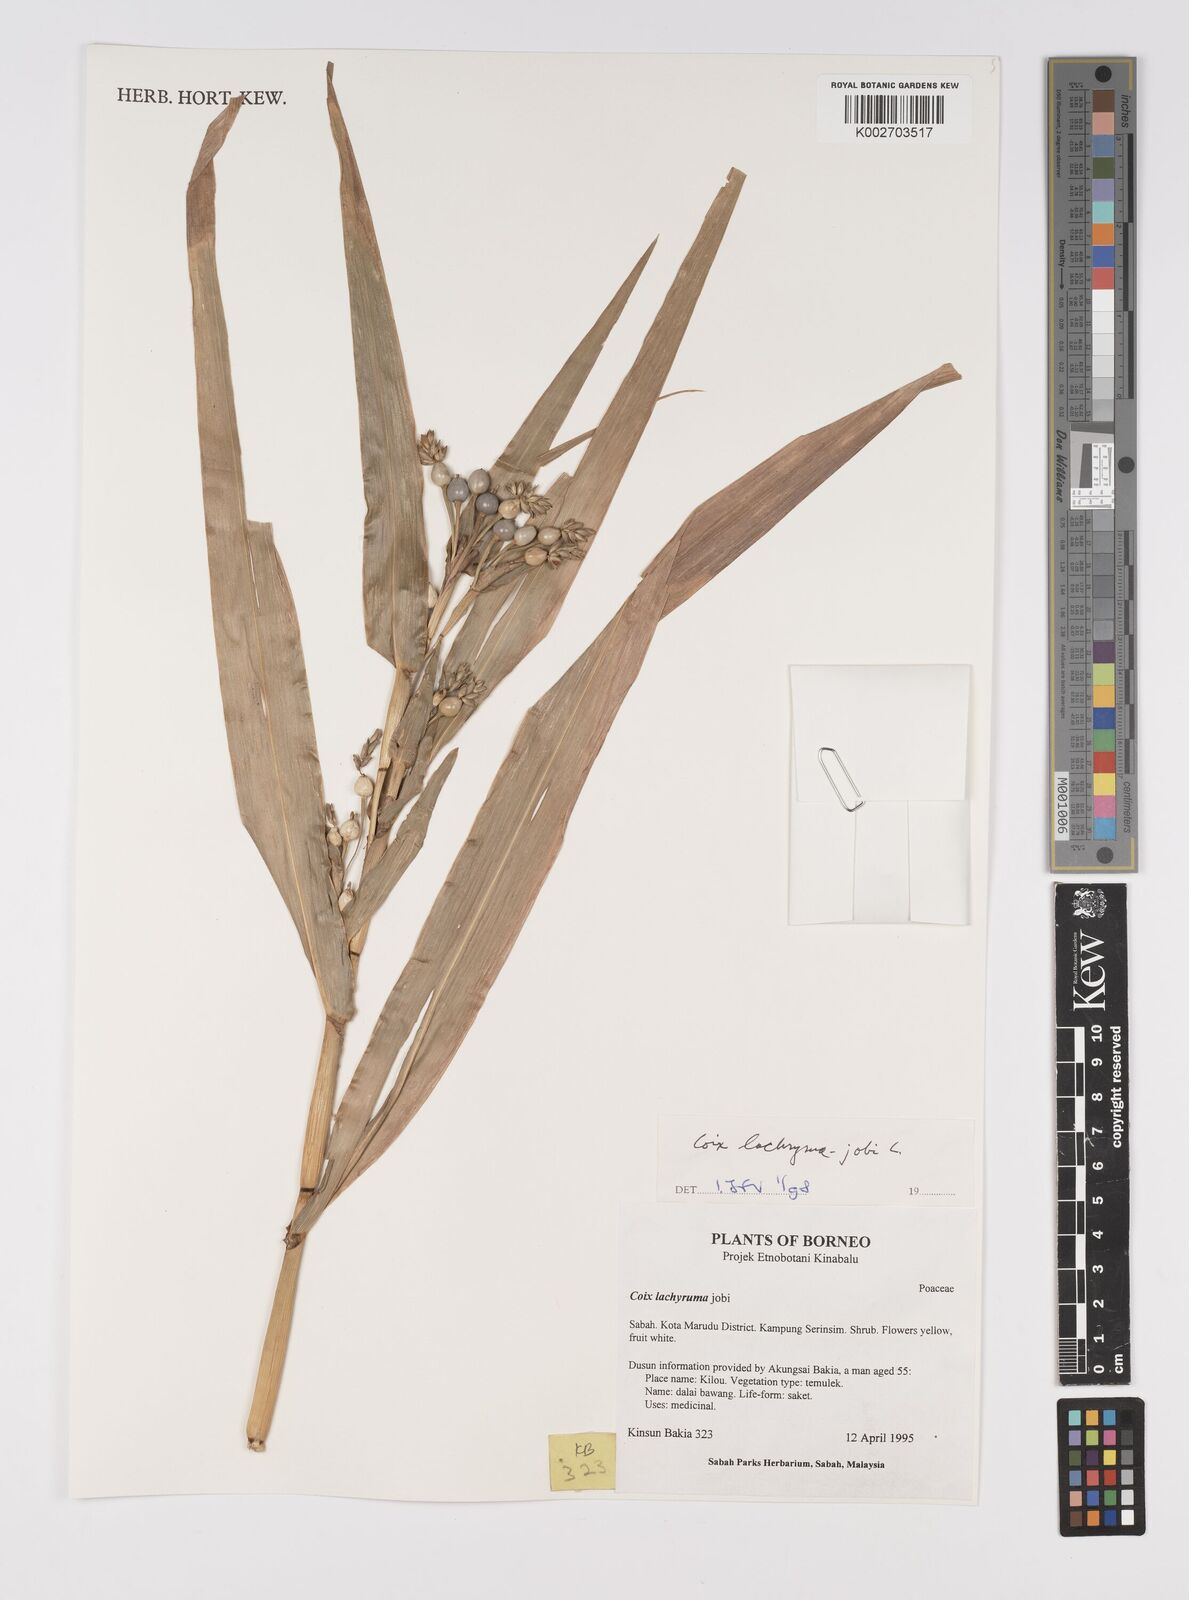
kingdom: Plantae
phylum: Tracheophyta
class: Liliopsida
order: Poales
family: Poaceae
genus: Coix
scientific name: Coix lacryma-jobi
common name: Job's tears
